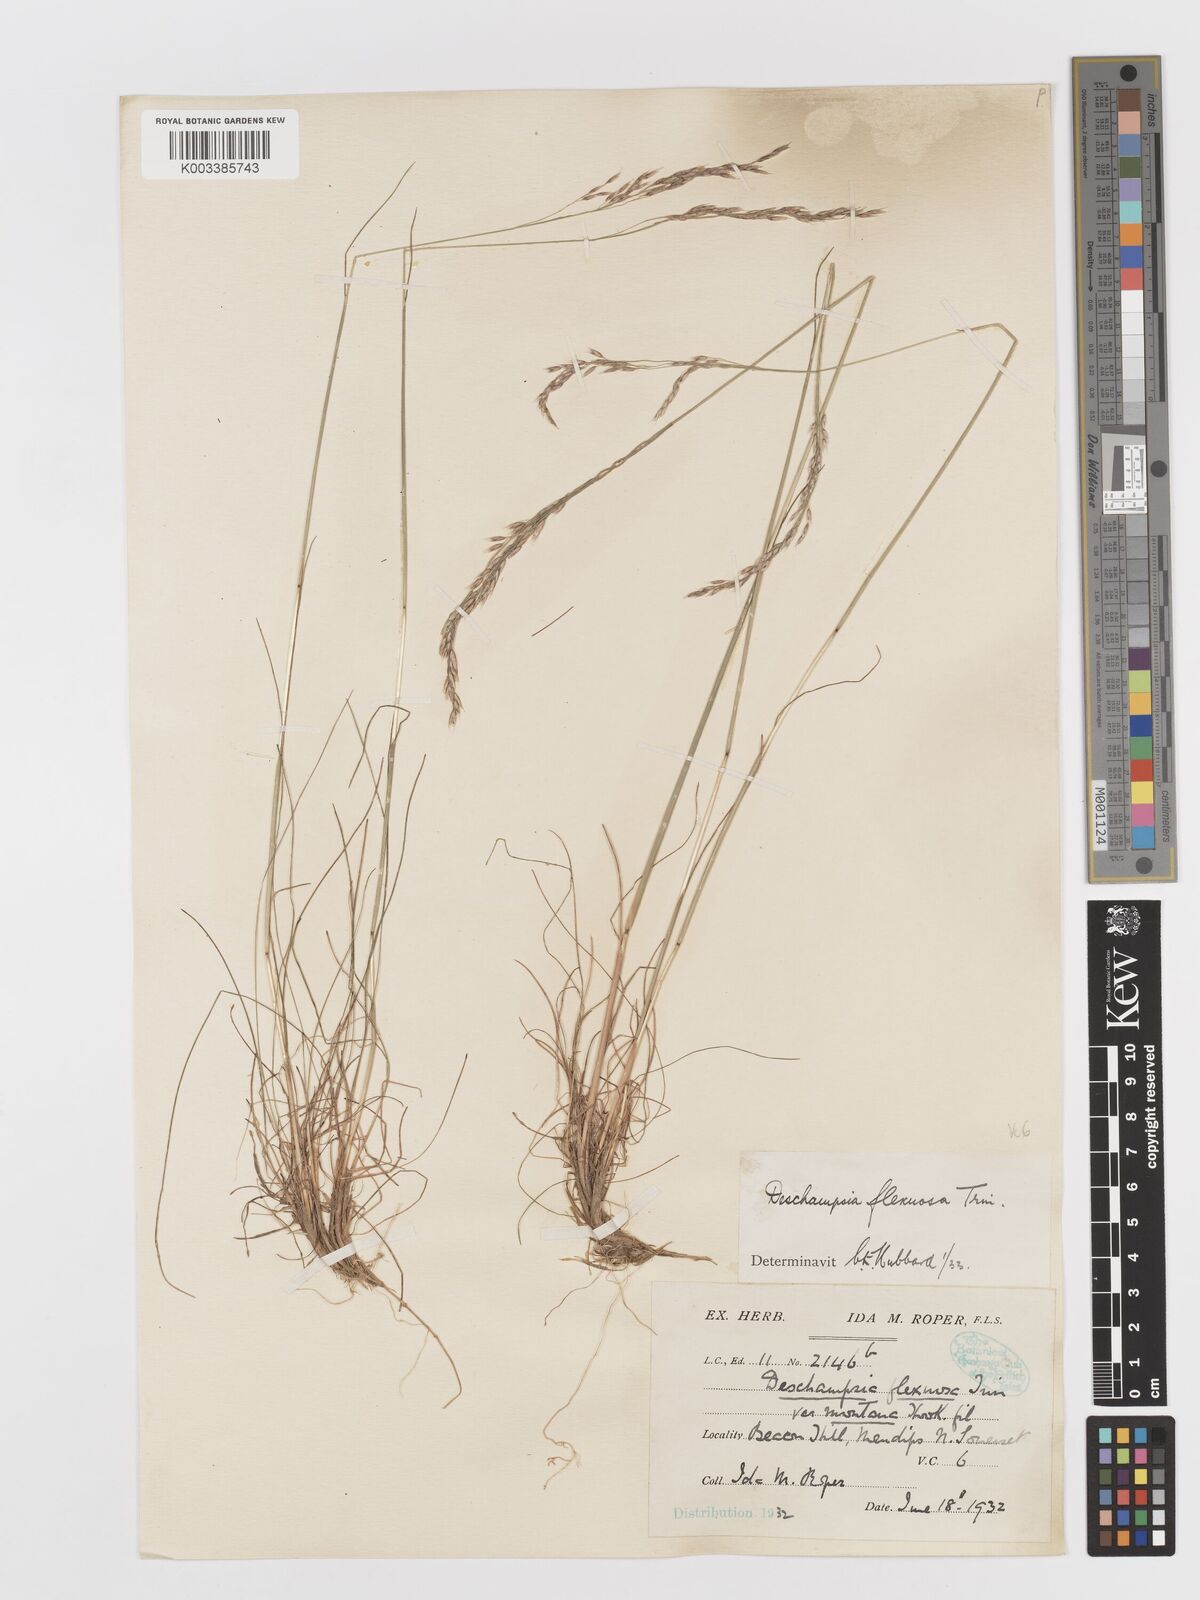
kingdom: Plantae
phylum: Tracheophyta
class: Liliopsida
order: Poales
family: Poaceae
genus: Avenella
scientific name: Avenella flexuosa
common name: Wavy hairgrass
